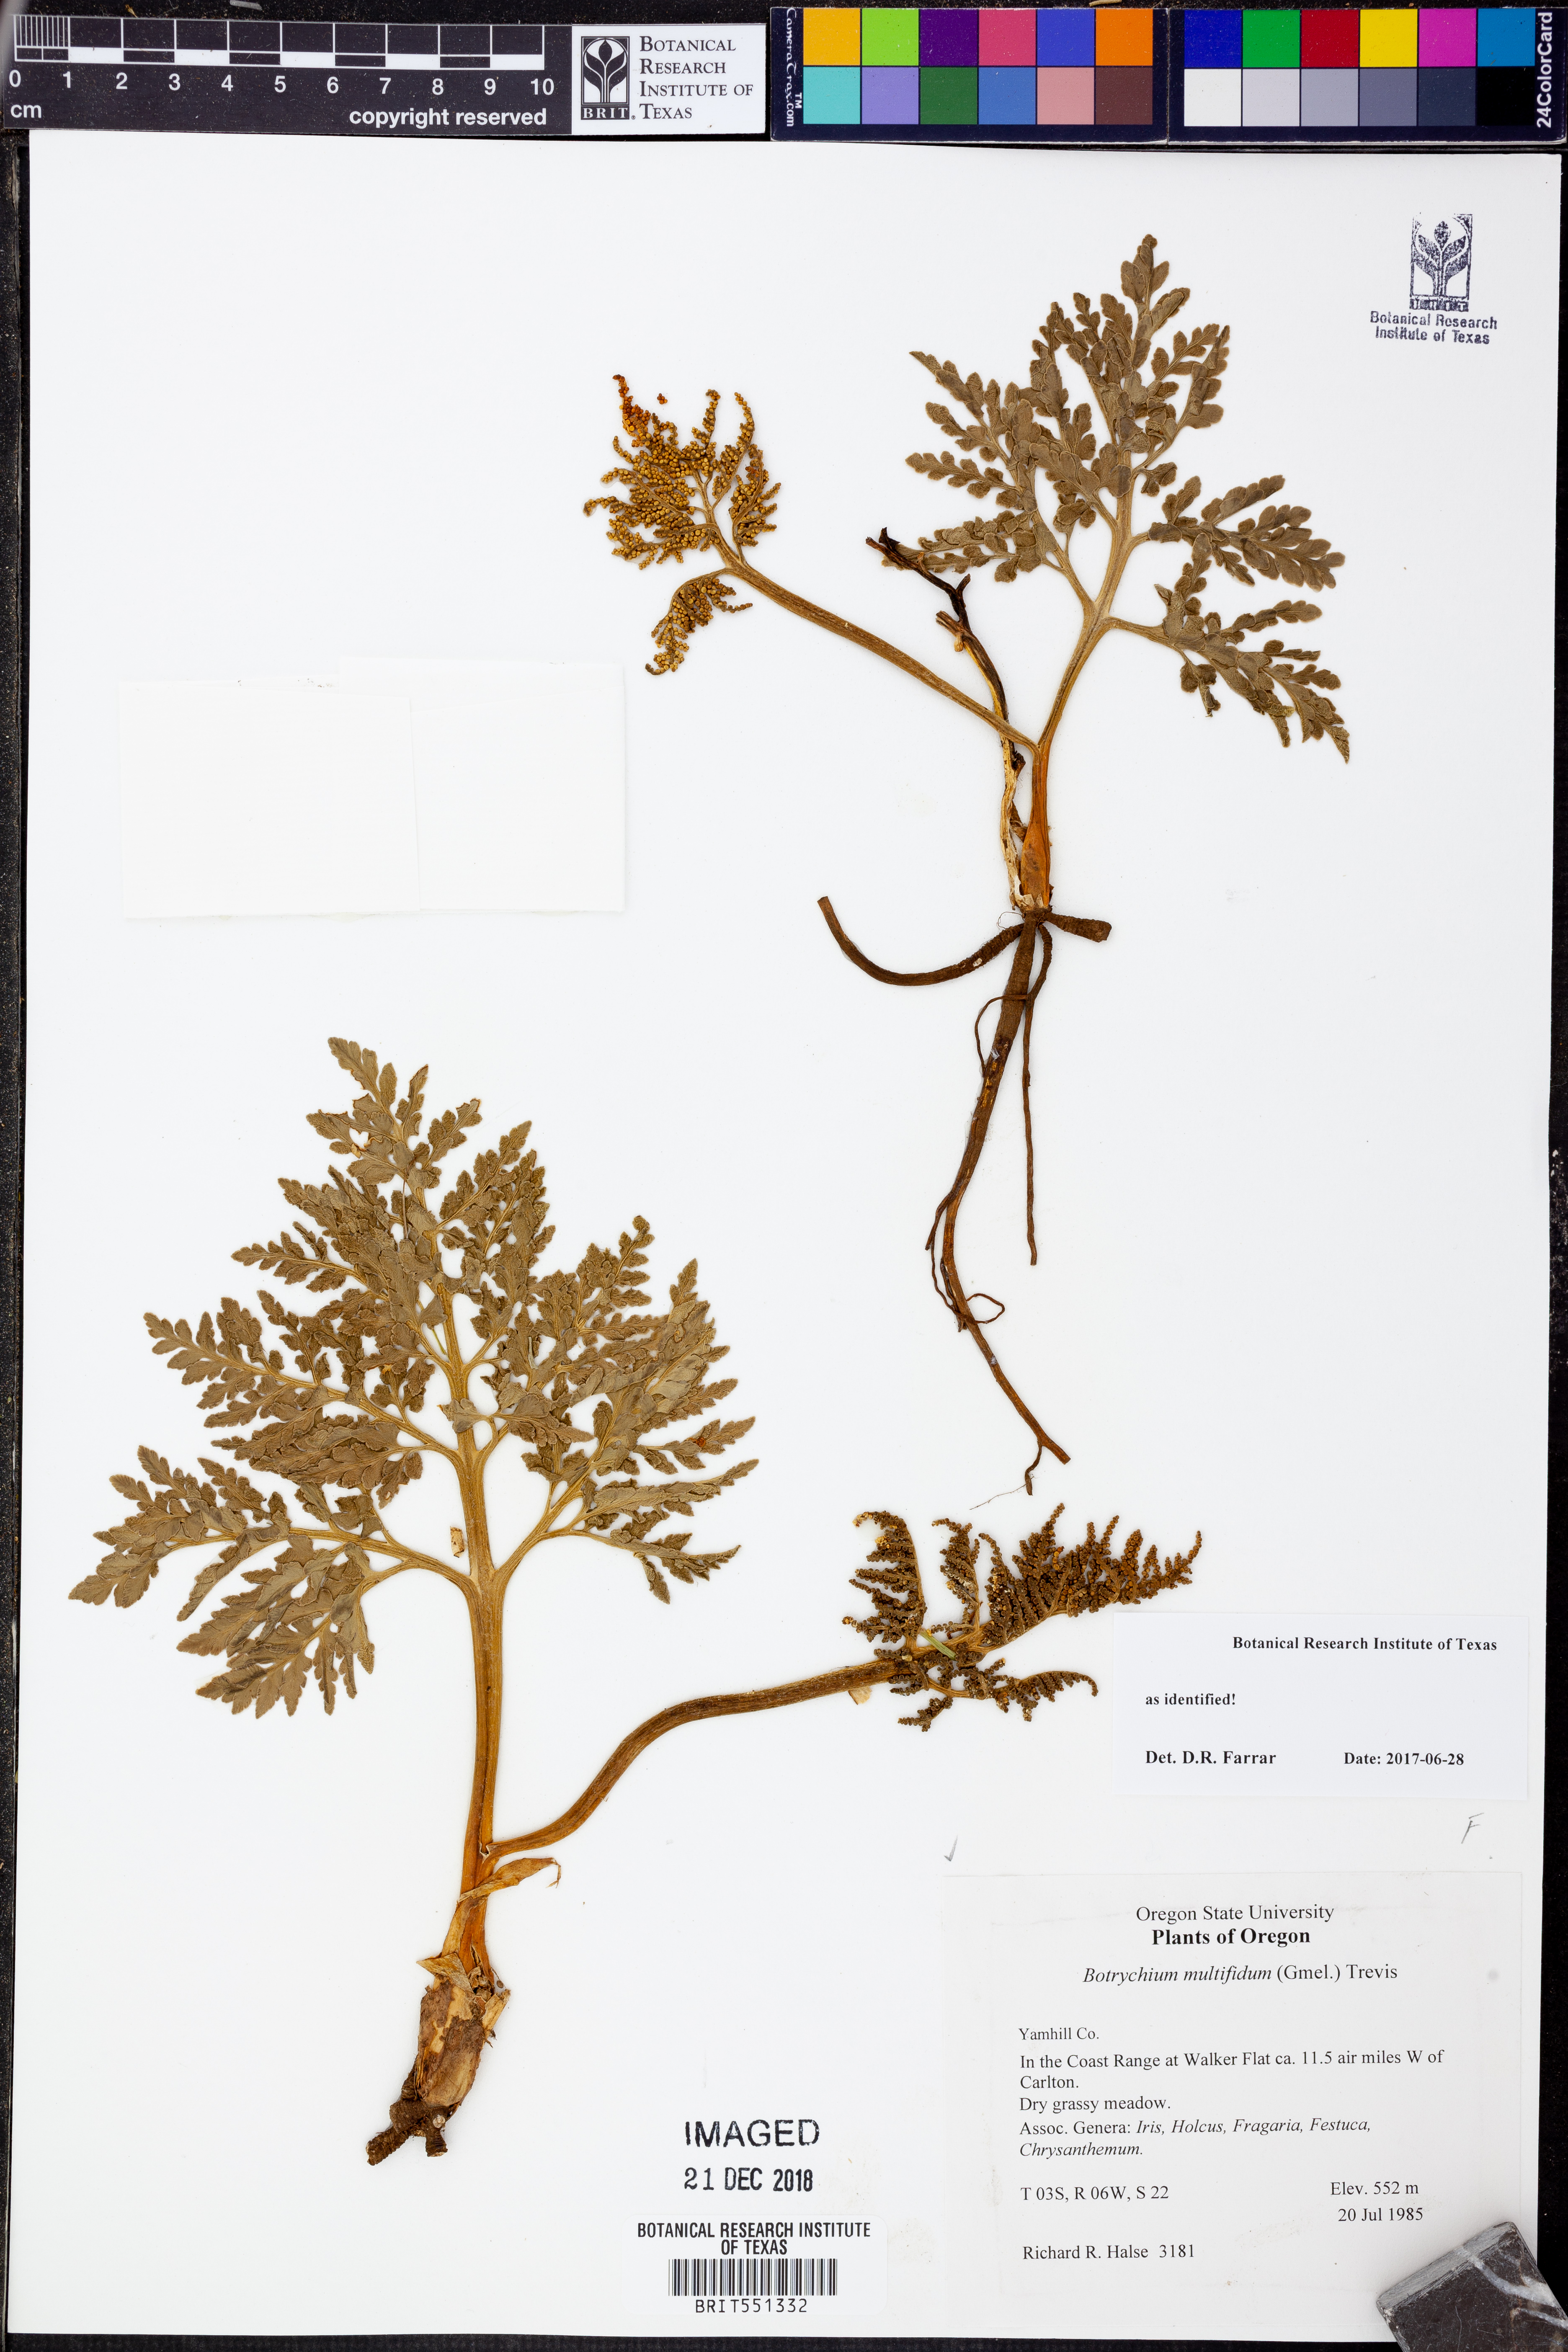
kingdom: Plantae
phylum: Tracheophyta
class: Polypodiopsida
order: Ophioglossales
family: Ophioglossaceae
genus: Sceptridium
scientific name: Sceptridium multifidum
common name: Leathery grape fern
